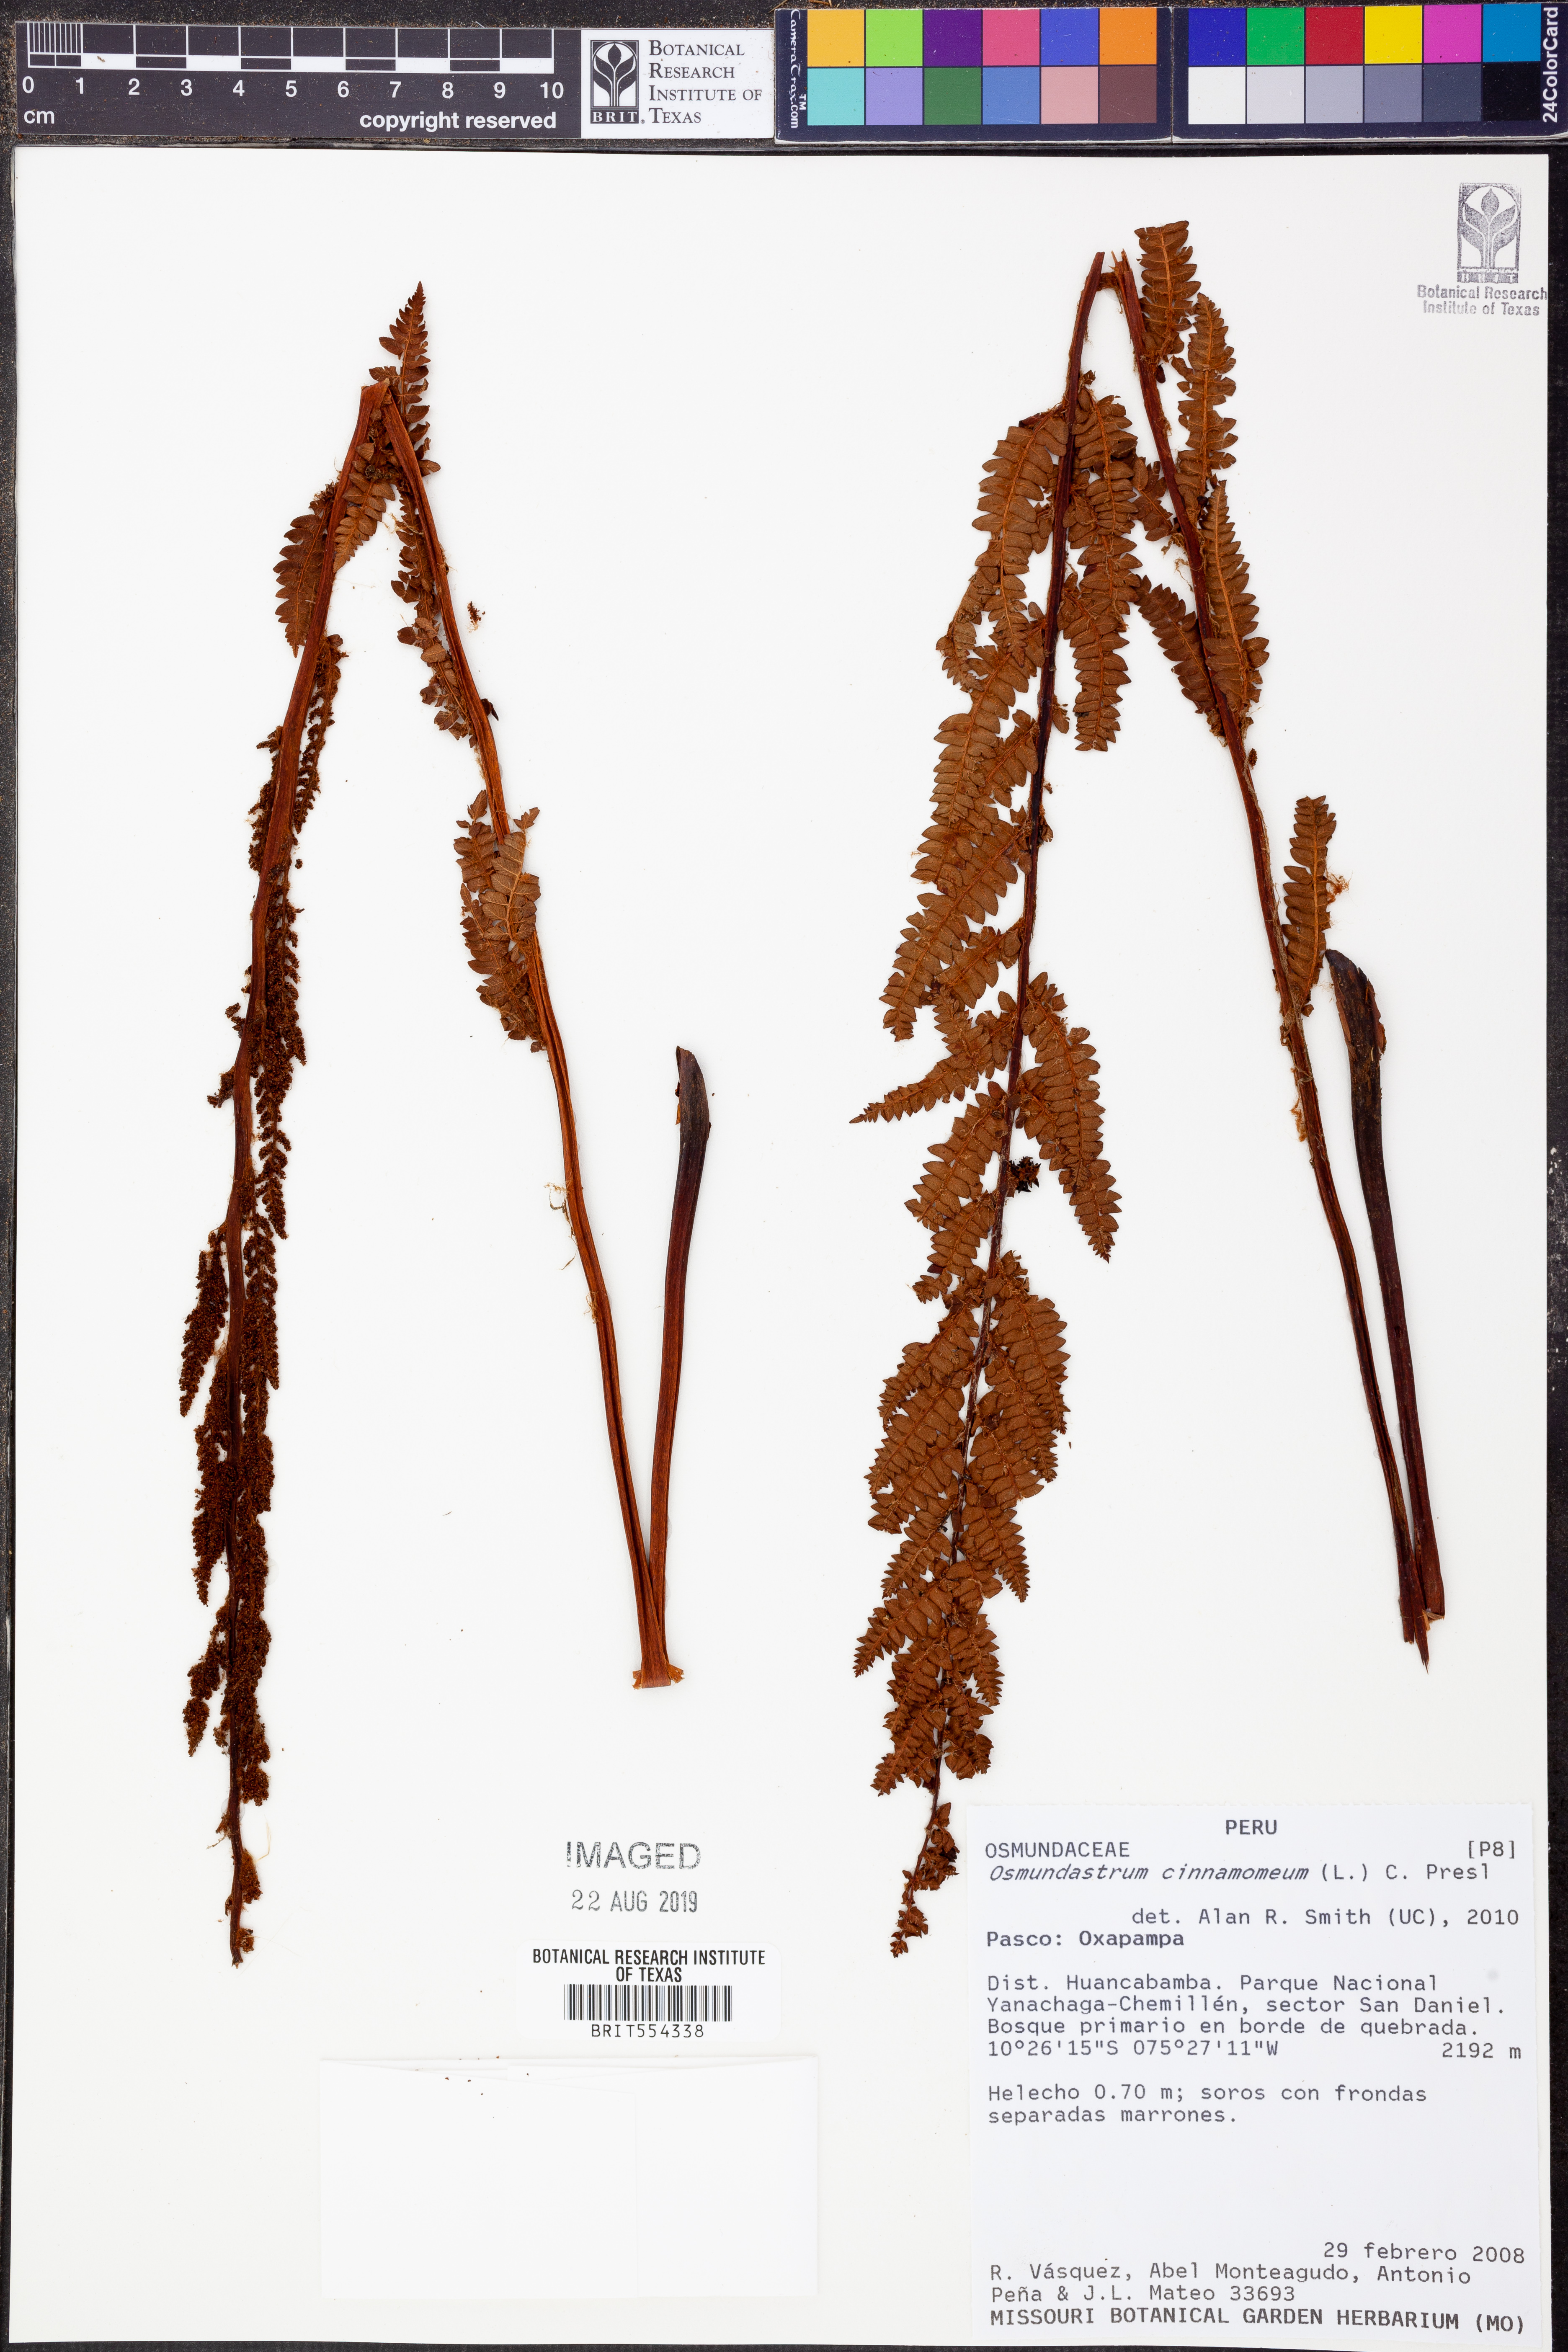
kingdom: Plantae
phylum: Tracheophyta
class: Polypodiopsida
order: Osmundales
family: Osmundaceae
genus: Osmundastrum
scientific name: Osmundastrum cinnamomeum
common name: Cinnamon fern
